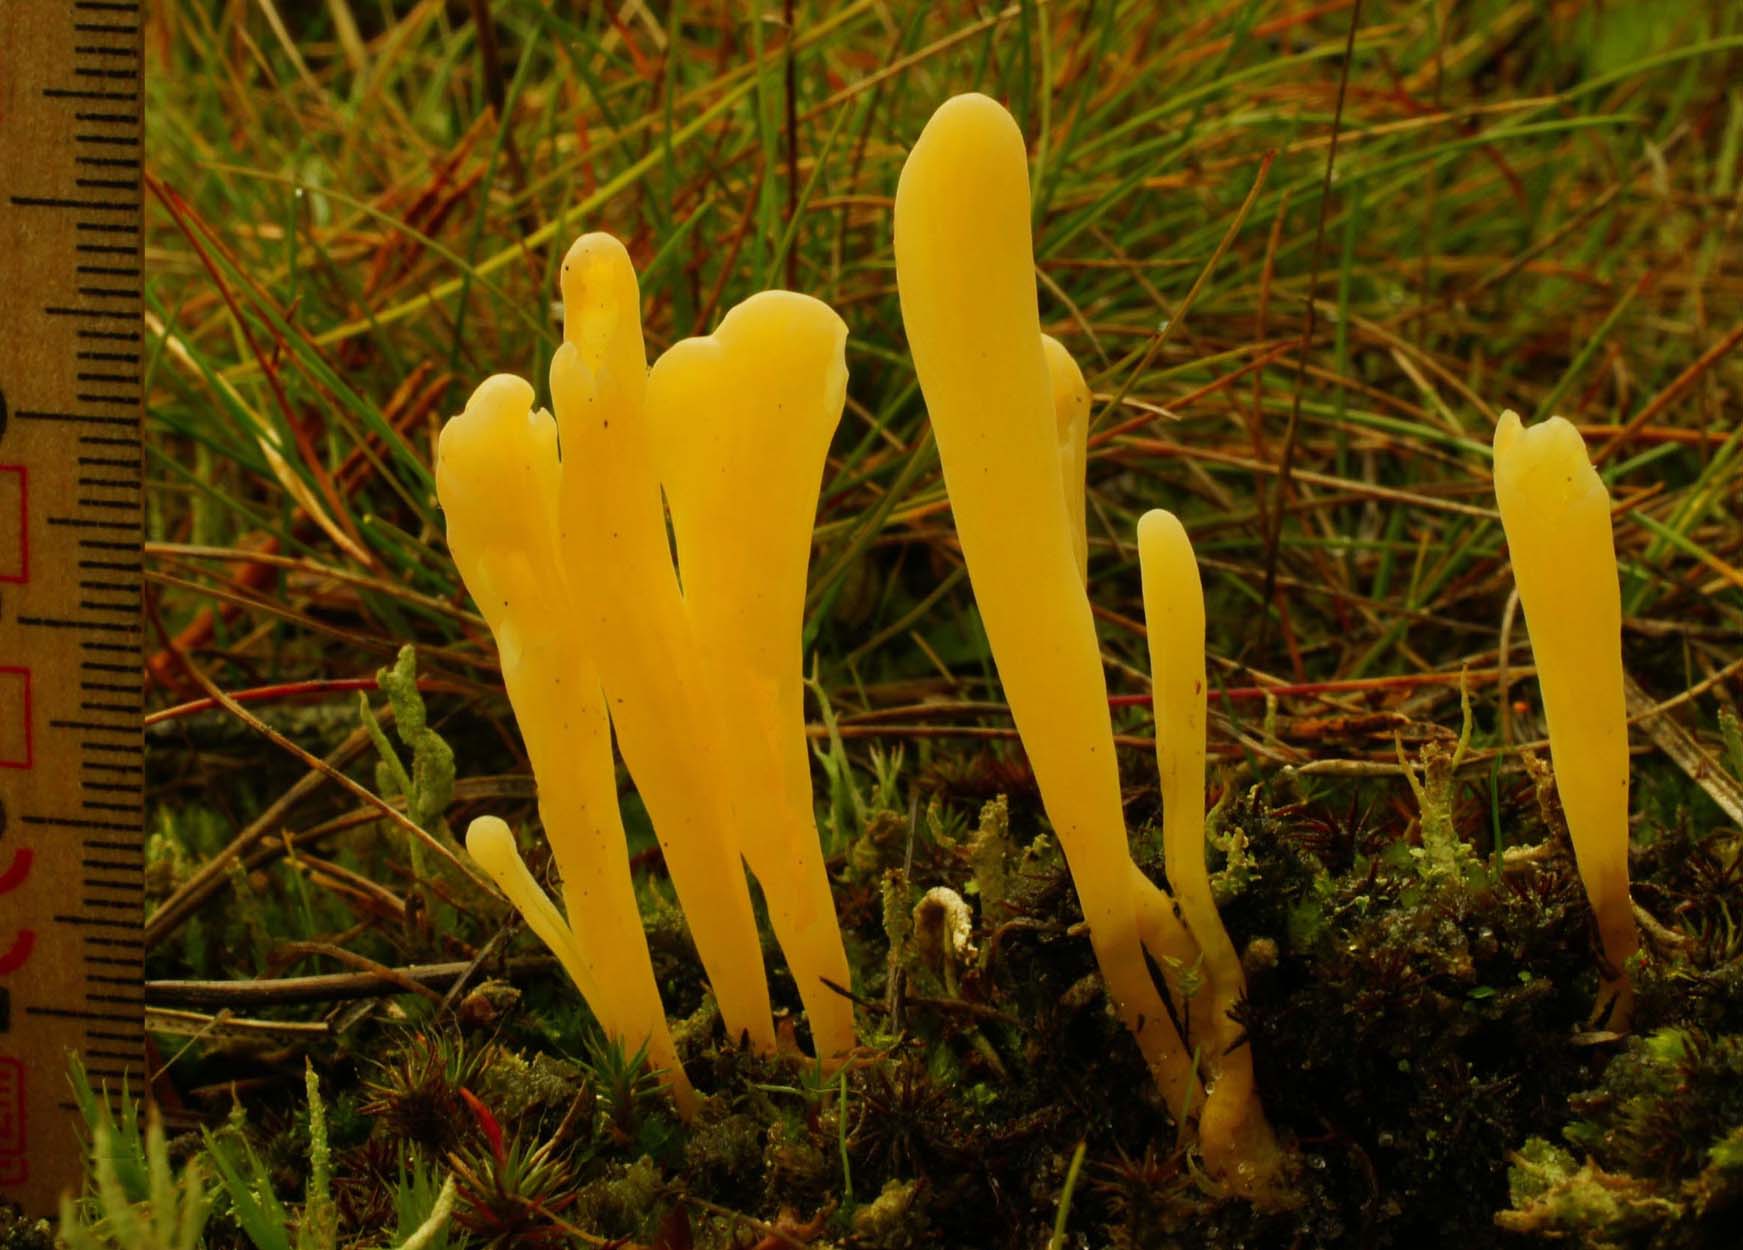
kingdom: Fungi
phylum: Basidiomycota
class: Agaricomycetes
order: Agaricales
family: Clavariaceae
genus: Clavaria
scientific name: Clavaria fumosa
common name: røggrå køllesvamp
